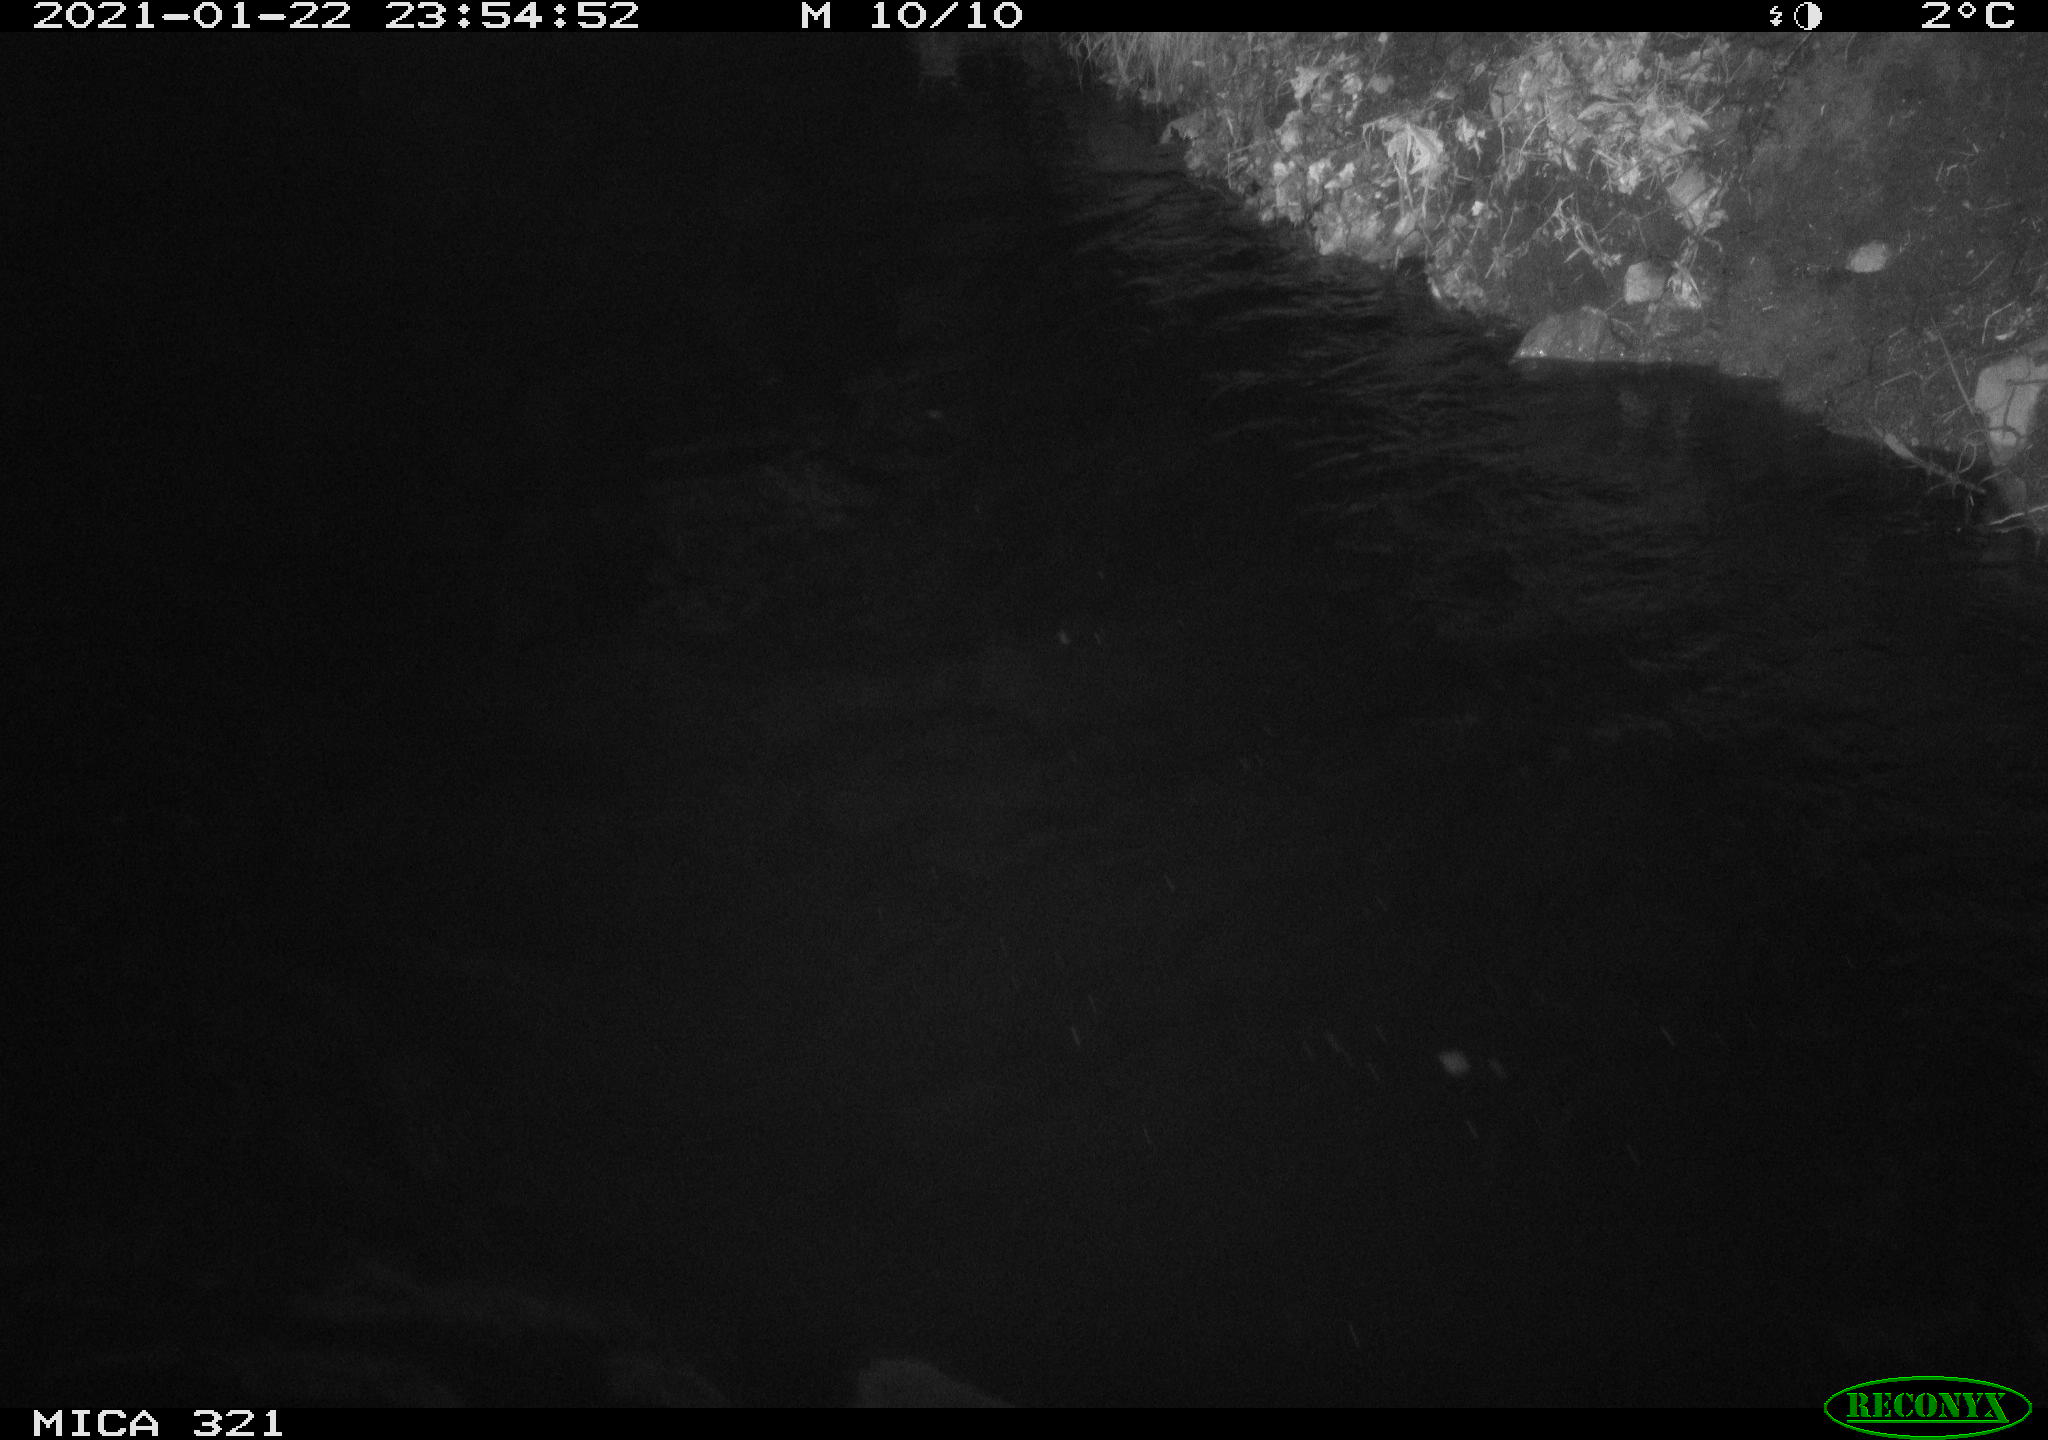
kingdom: Animalia
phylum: Chordata
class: Mammalia
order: Rodentia
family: Muridae
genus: Rattus
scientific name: Rattus norvegicus
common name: Brown rat
